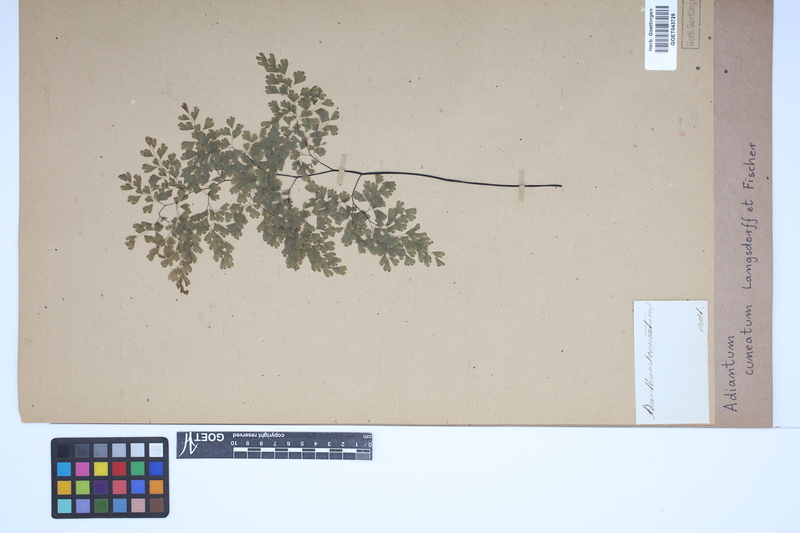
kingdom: Plantae
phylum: Tracheophyta
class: Polypodiopsida
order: Polypodiales
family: Pteridaceae
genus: Adiantum
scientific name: Adiantum raddianum
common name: Delta maidenhair fern
